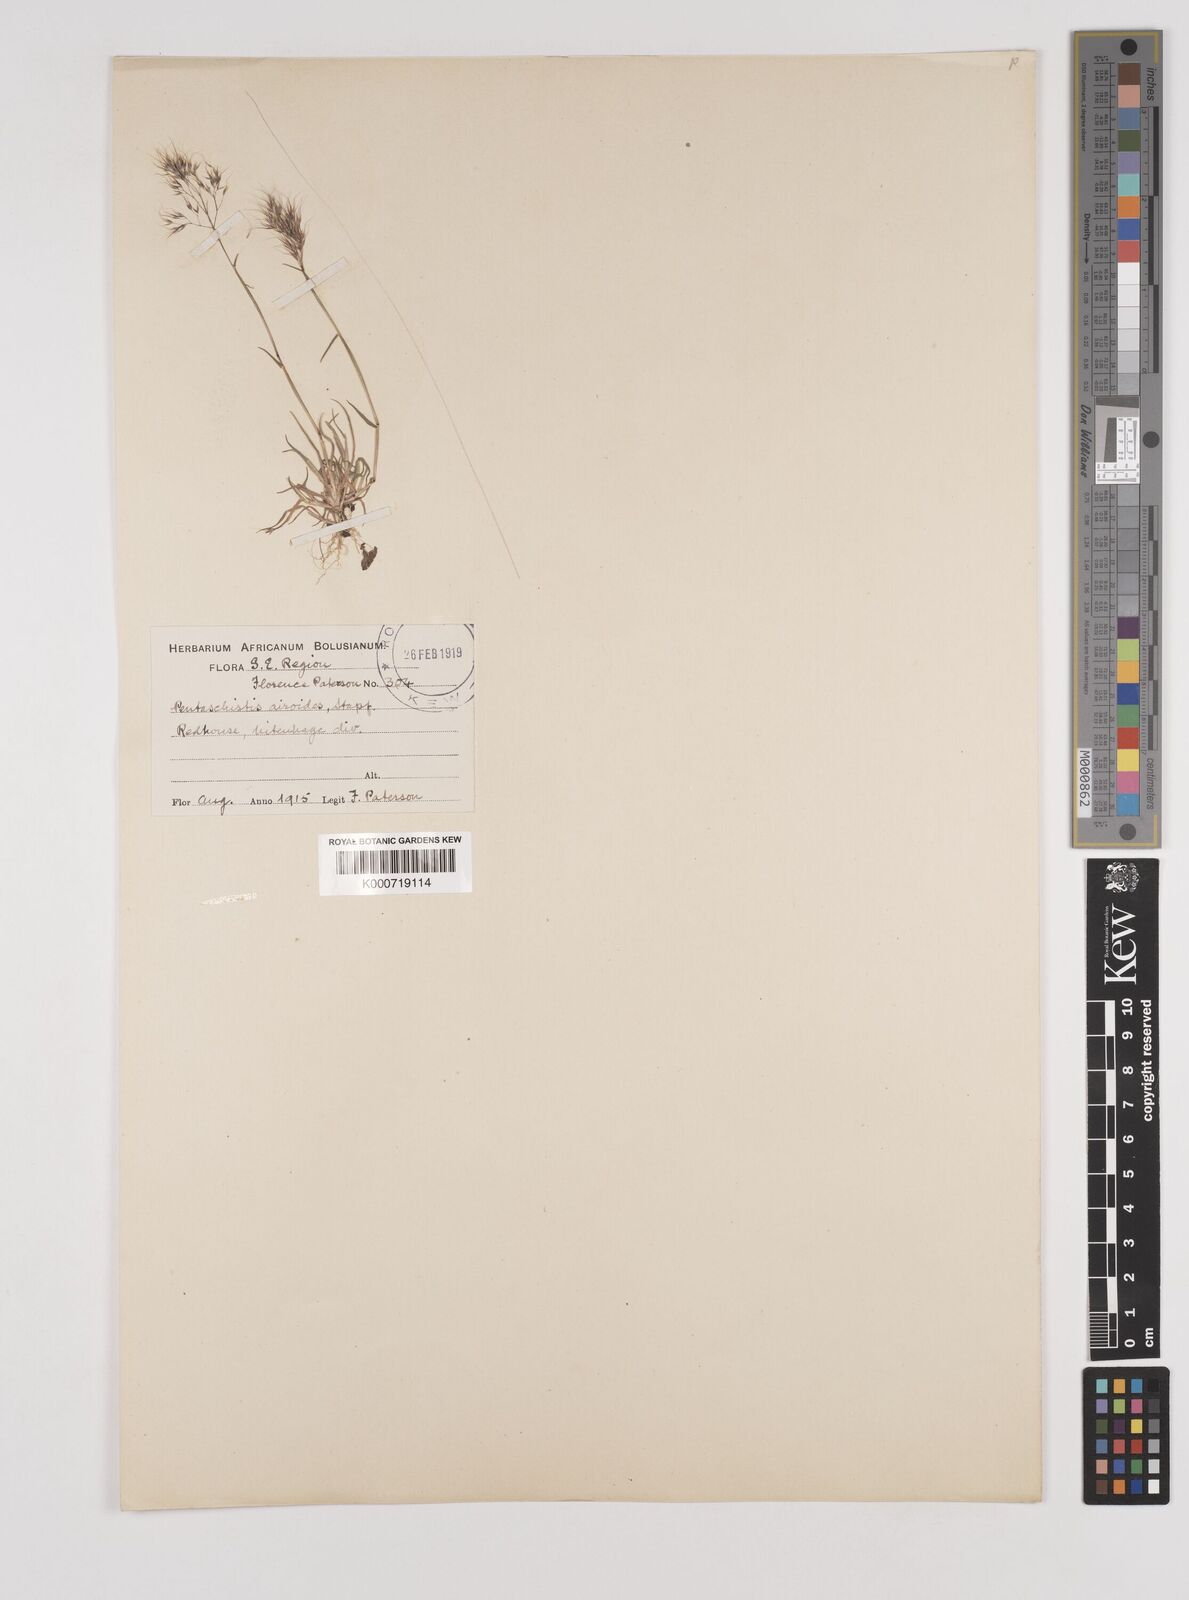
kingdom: Plantae
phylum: Tracheophyta
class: Liliopsida
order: Poales
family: Poaceae
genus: Pentameris
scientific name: Pentameris airoides
